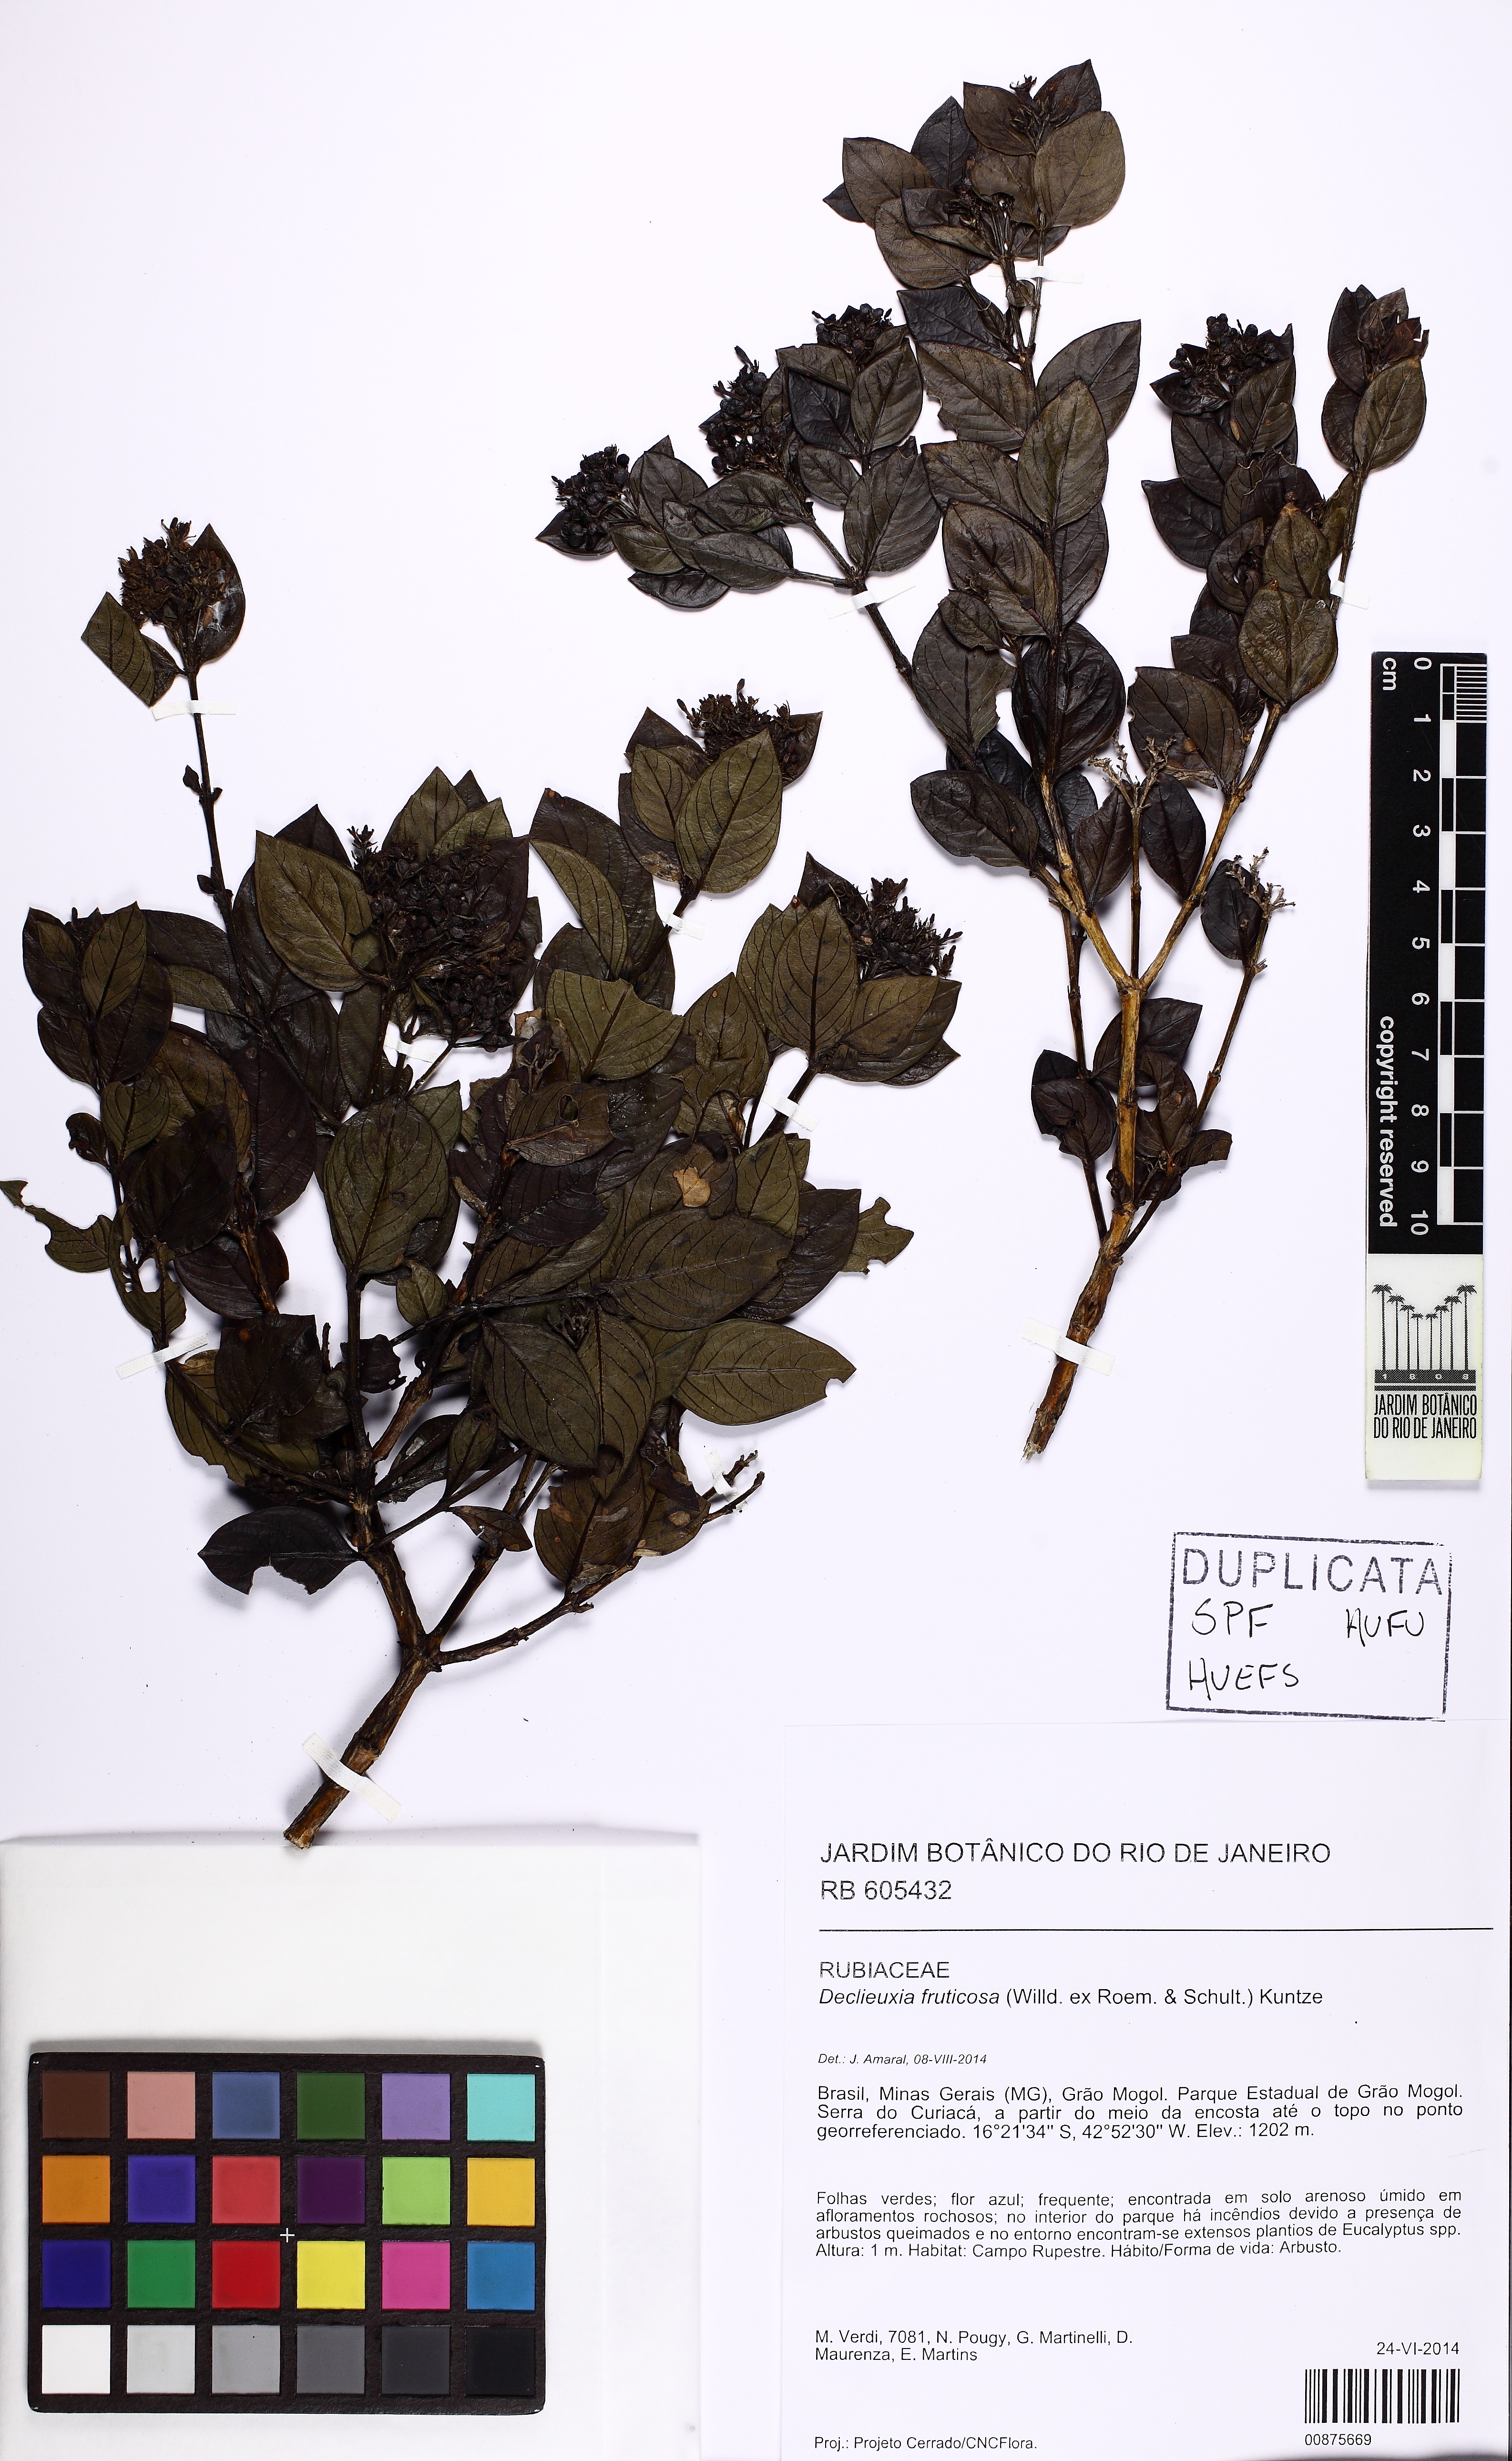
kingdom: Plantae
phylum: Tracheophyta
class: Magnoliopsida
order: Gentianales
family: Rubiaceae
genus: Declieuxia
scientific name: Declieuxia fruticosa
